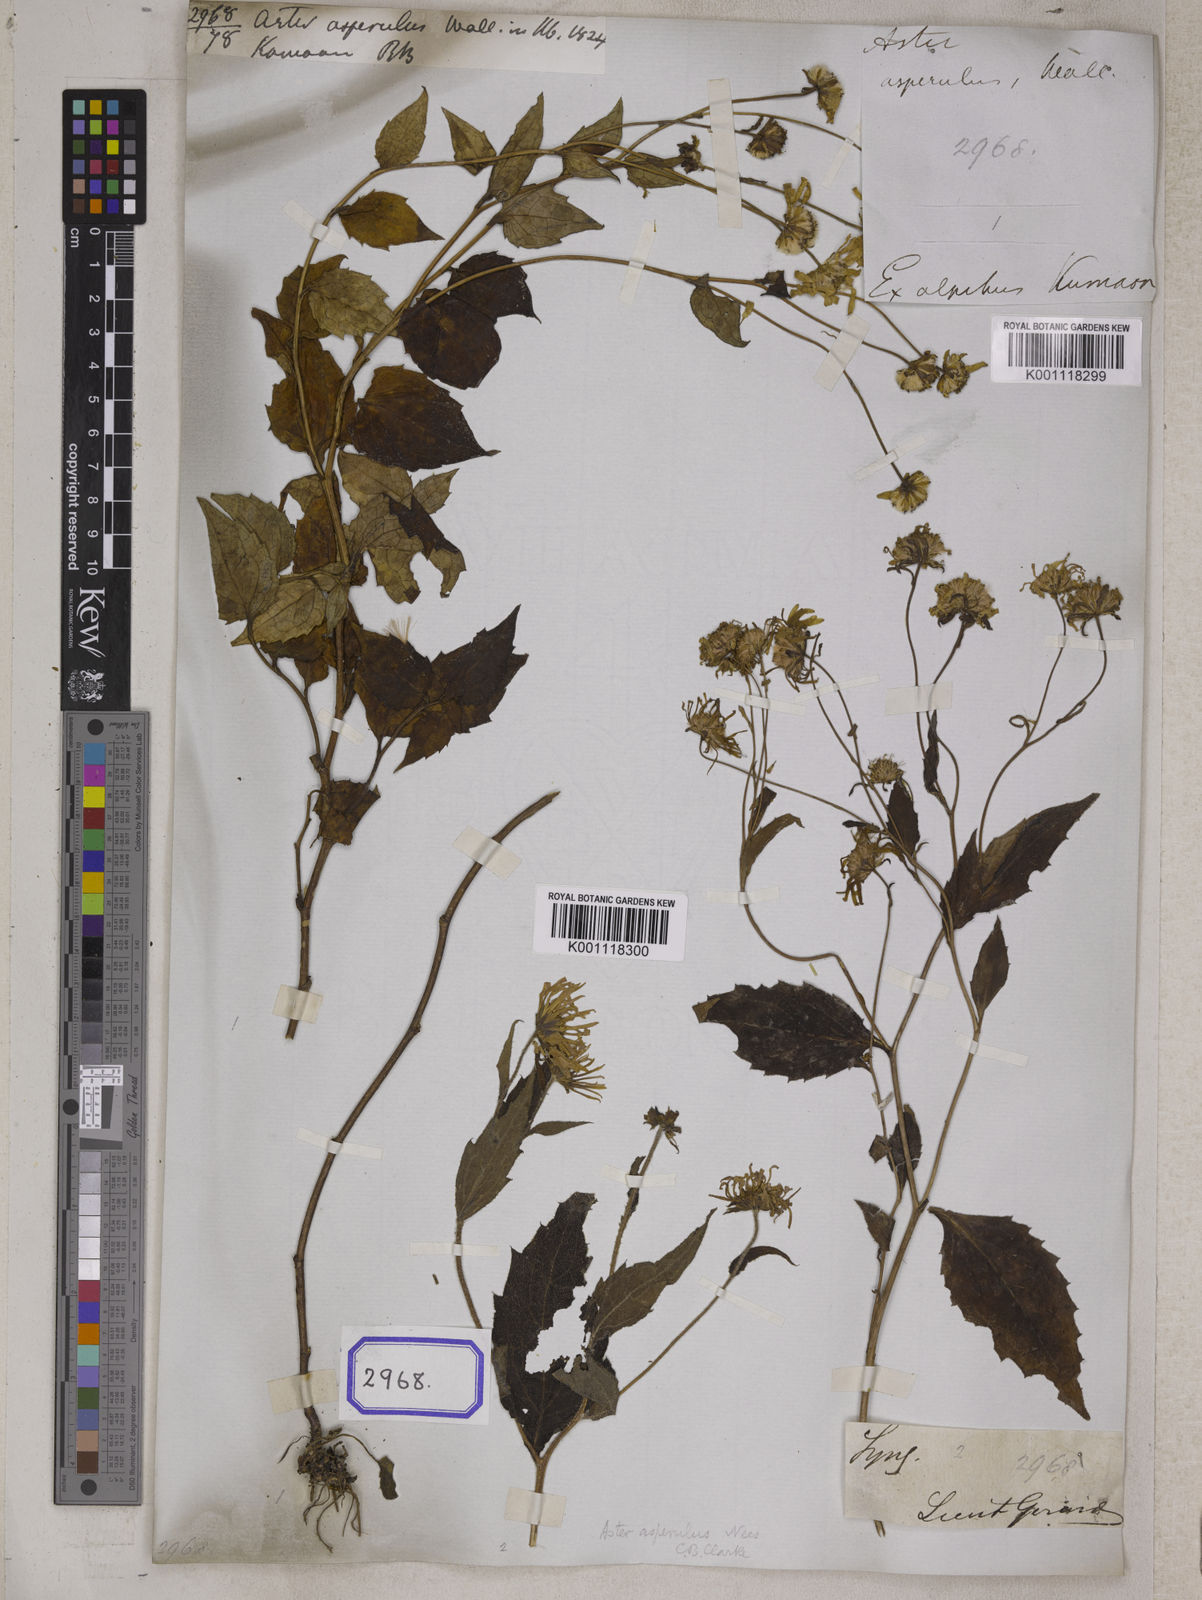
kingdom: Plantae
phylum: Tracheophyta
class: Magnoliopsida
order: Asterales
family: Asteraceae
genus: Aster
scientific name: Aster asperulus
